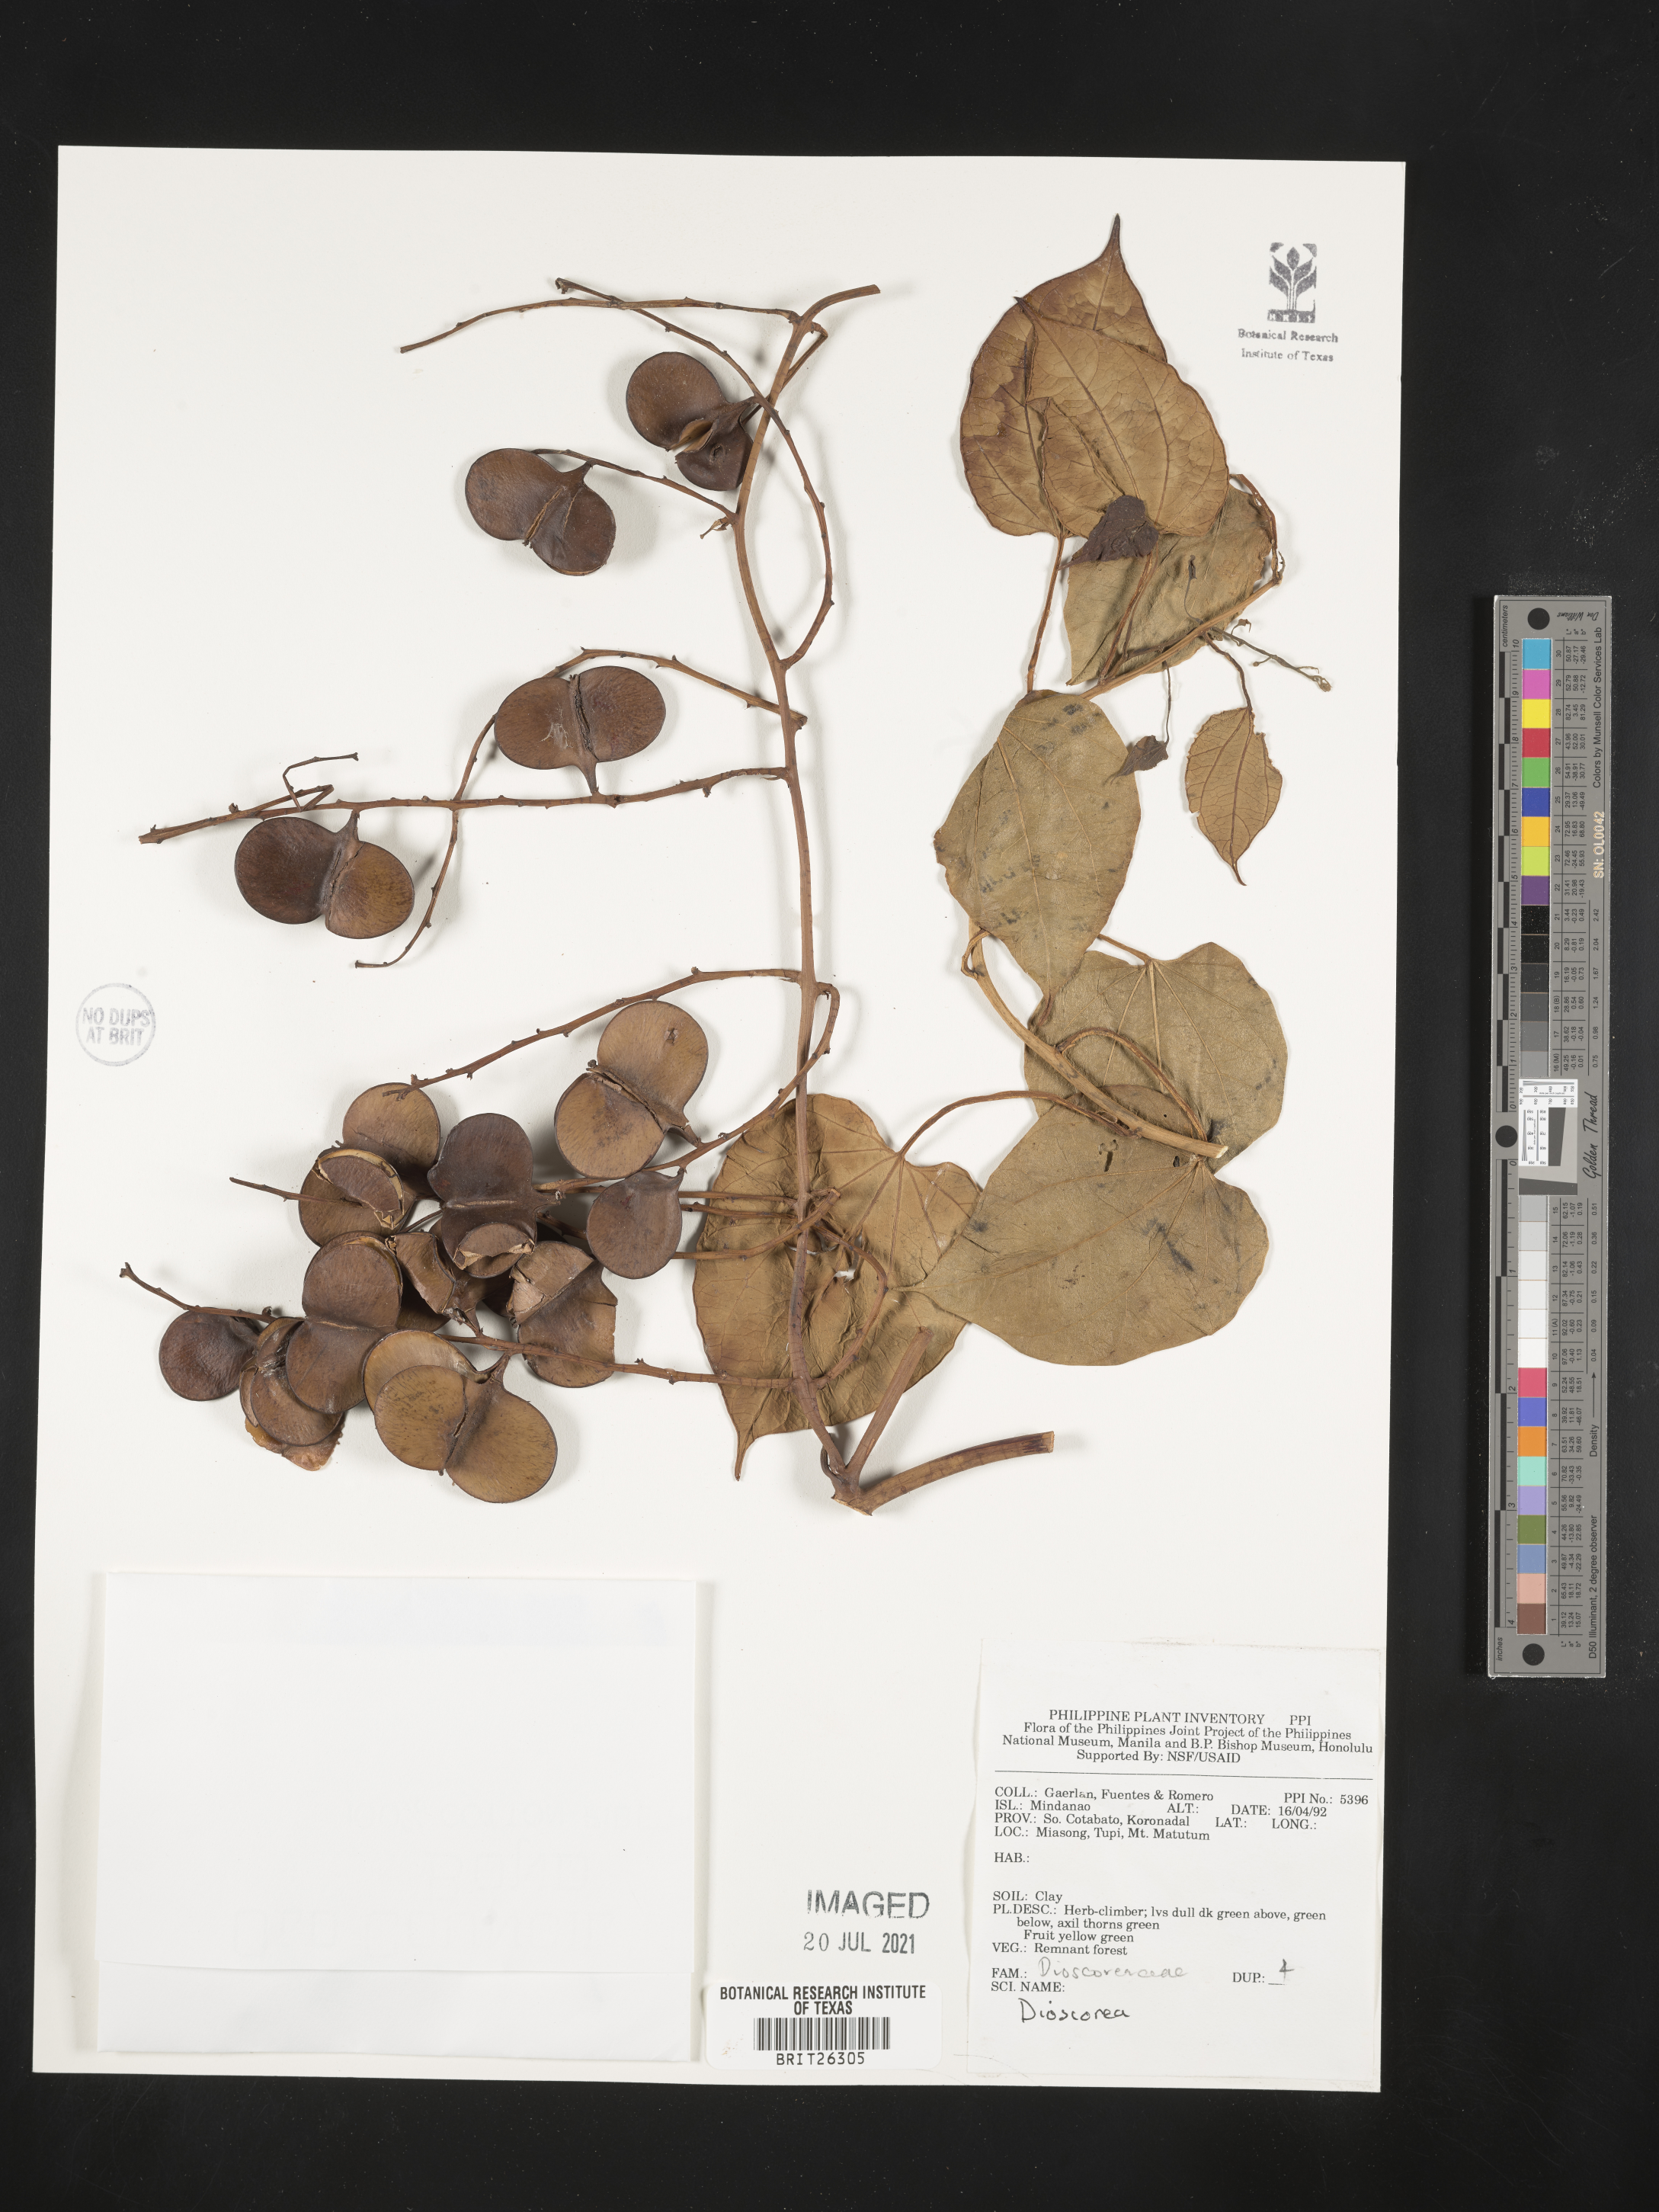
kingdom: Plantae
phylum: Tracheophyta
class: Liliopsida
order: Dioscoreales
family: Dioscoreaceae
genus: Dioscorea
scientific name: Dioscorea
